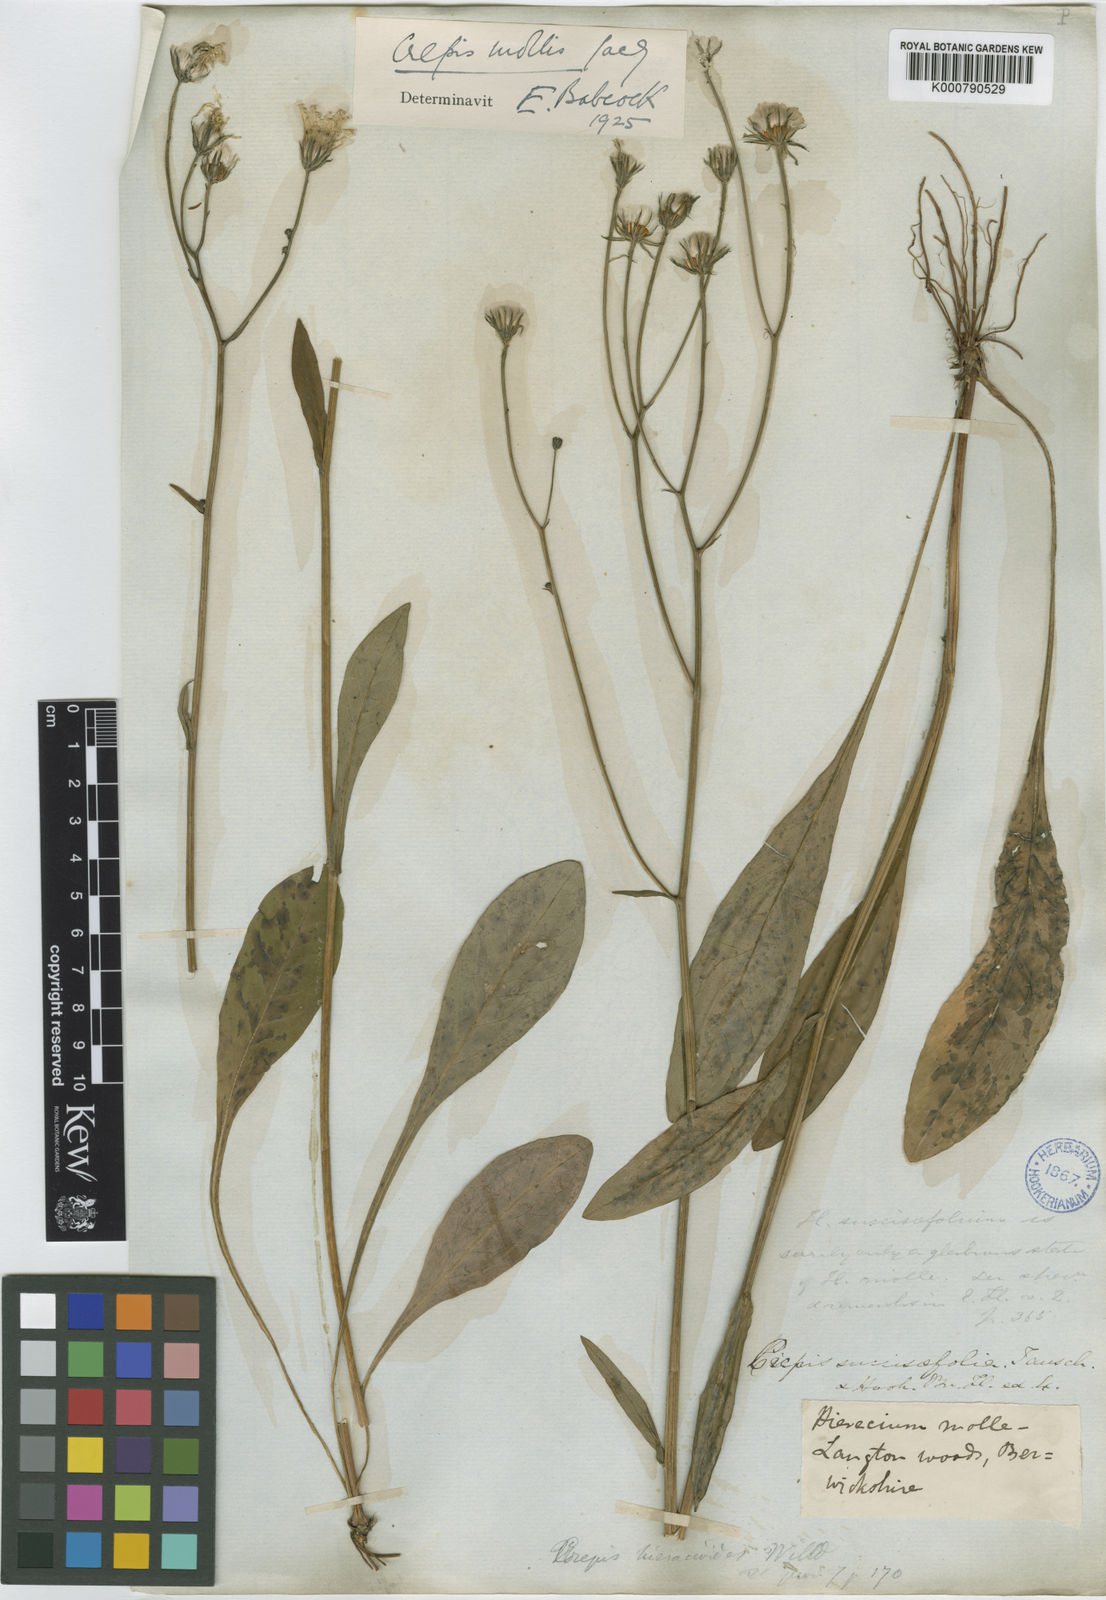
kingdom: Plantae
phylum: Tracheophyta
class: Magnoliopsida
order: Asterales
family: Asteraceae
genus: Crepis
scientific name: Crepis mollis
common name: Northern hawk's-beard
